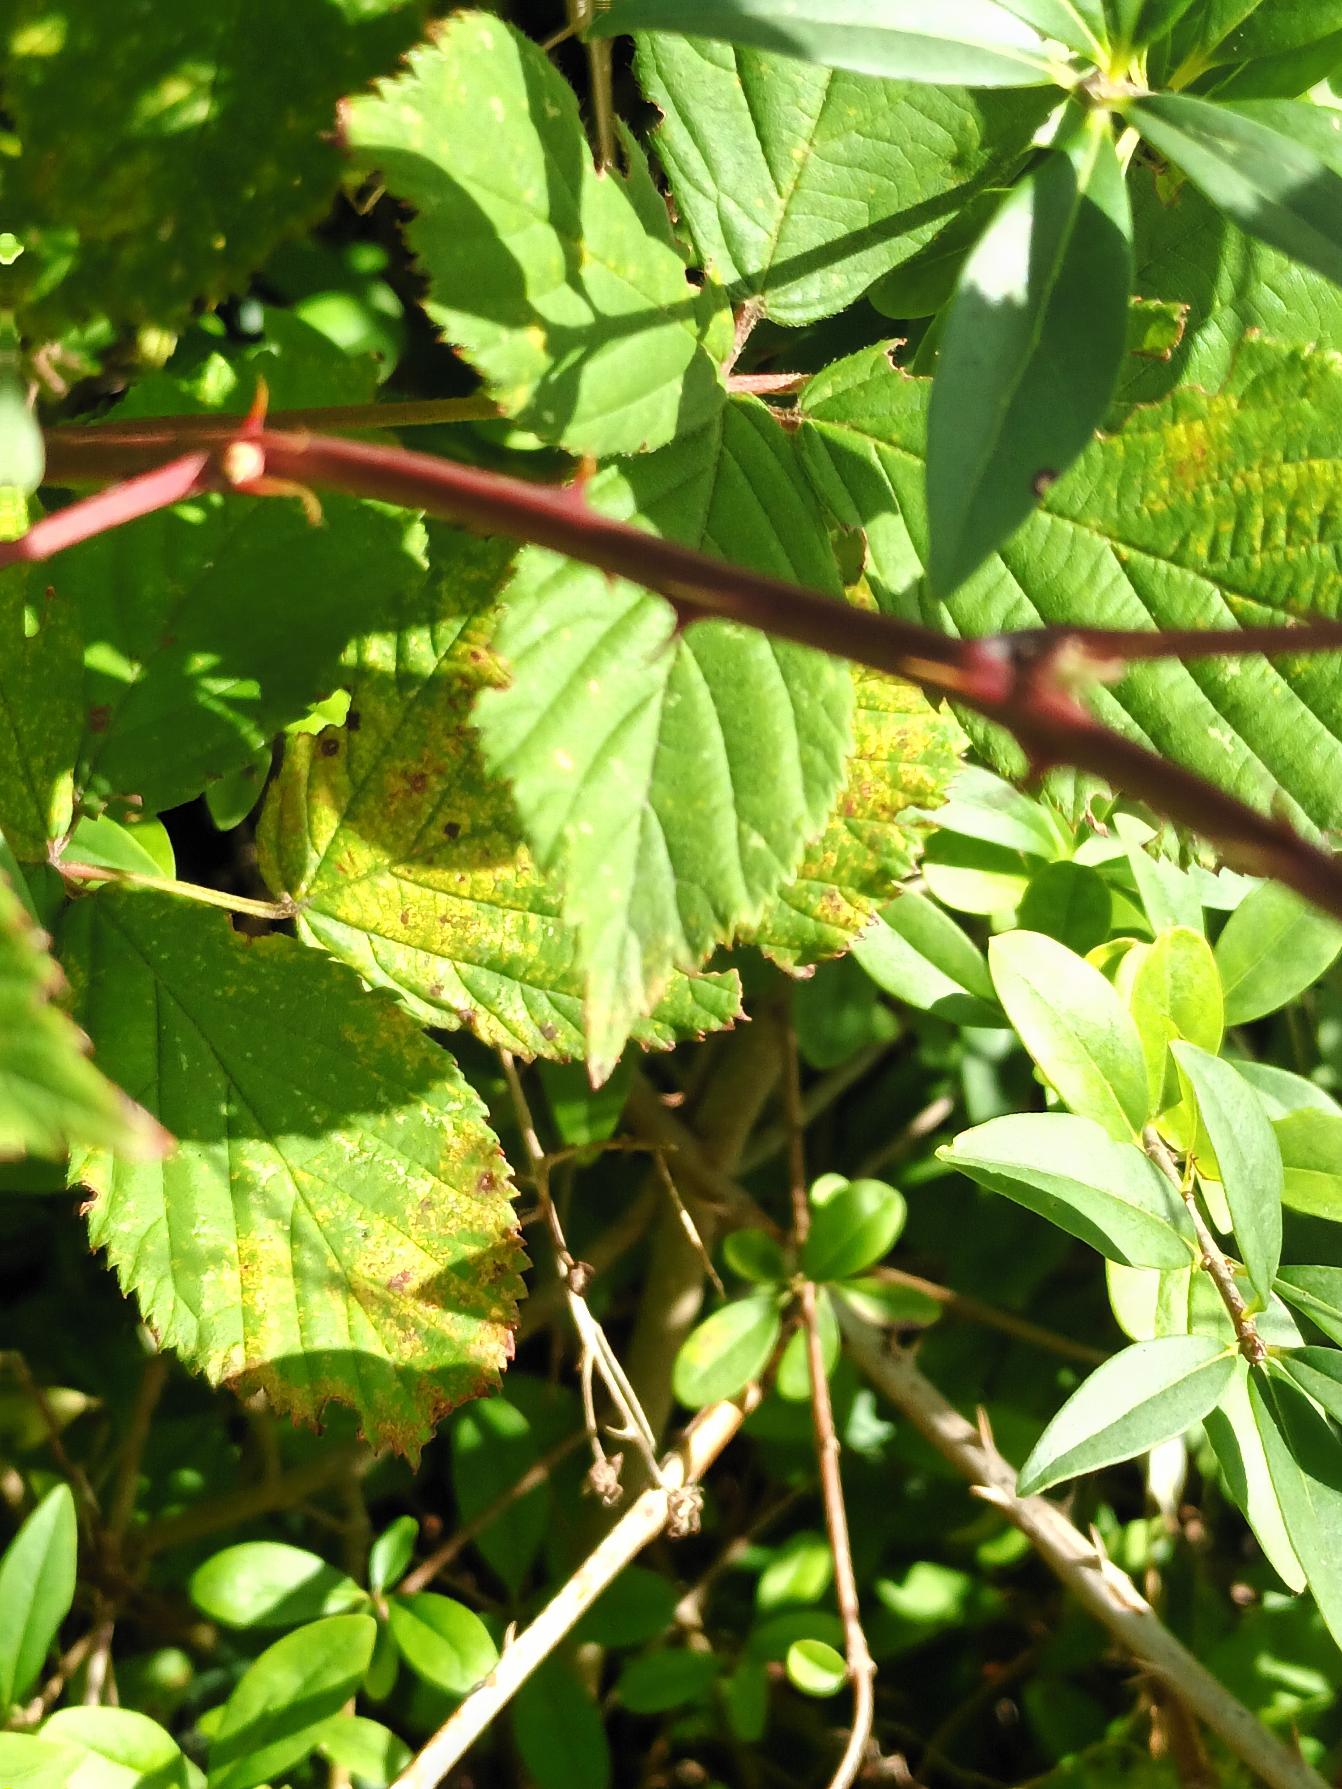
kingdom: Plantae
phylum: Tracheophyta
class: Magnoliopsida
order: Rosales
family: Rosaceae
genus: Rubus
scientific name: Rubus plicatus
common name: Almindelig brombær
